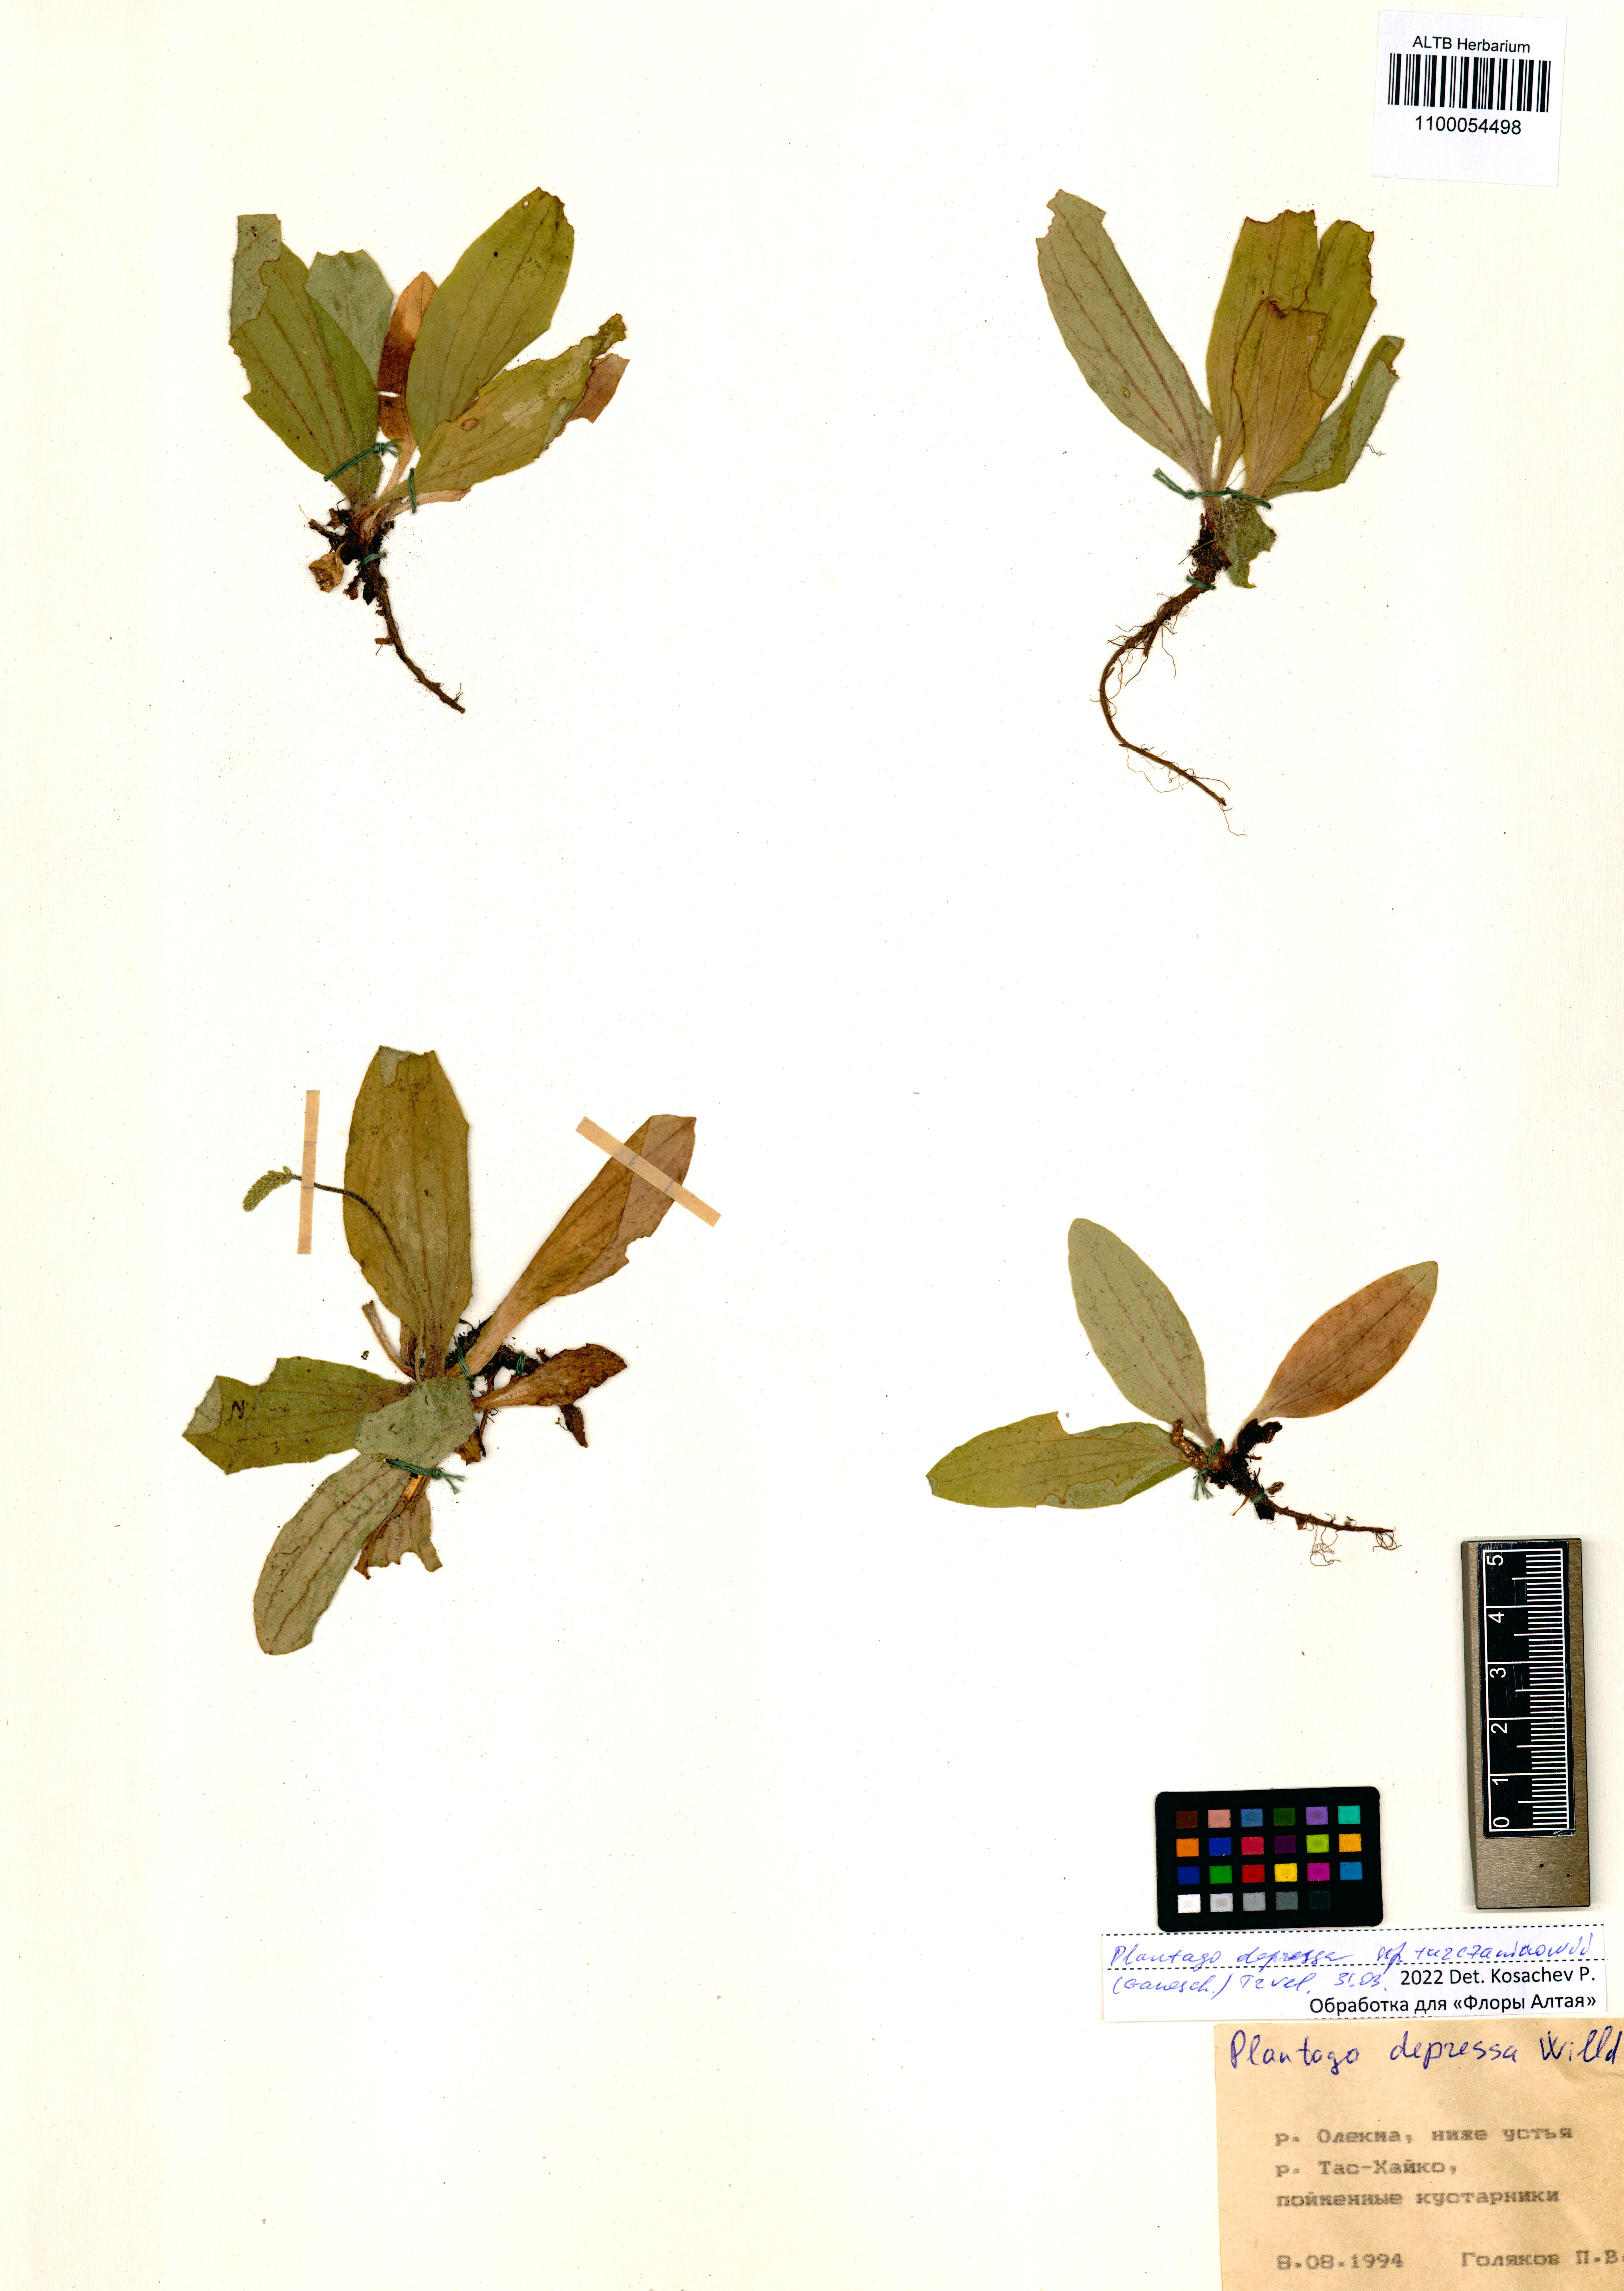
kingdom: Plantae
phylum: Tracheophyta
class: Magnoliopsida
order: Lamiales
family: Plantaginaceae
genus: Plantago
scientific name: Plantago depressa
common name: Depressed plantain
